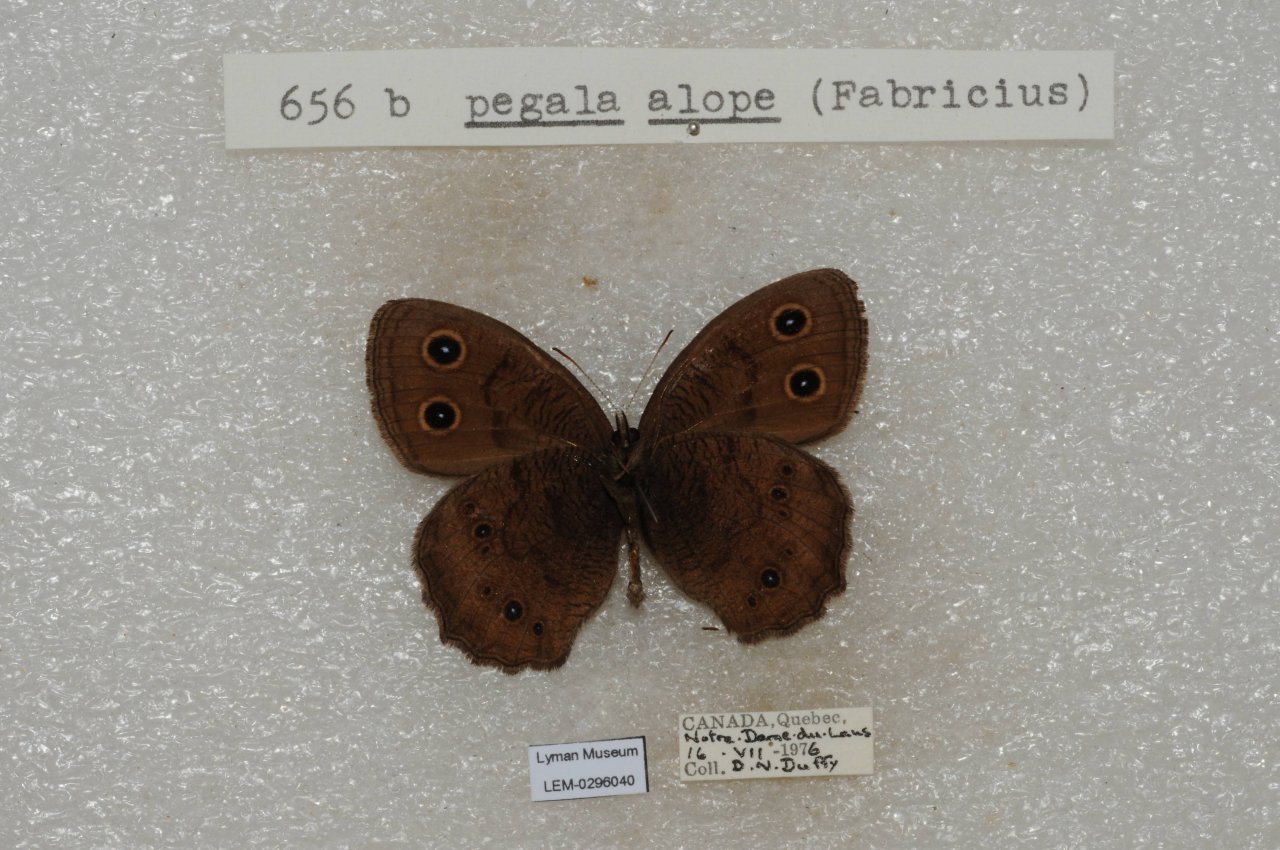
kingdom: Animalia
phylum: Arthropoda
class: Insecta
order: Lepidoptera
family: Nymphalidae
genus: Cercyonis
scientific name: Cercyonis pegala
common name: Common Wood-Nymph
